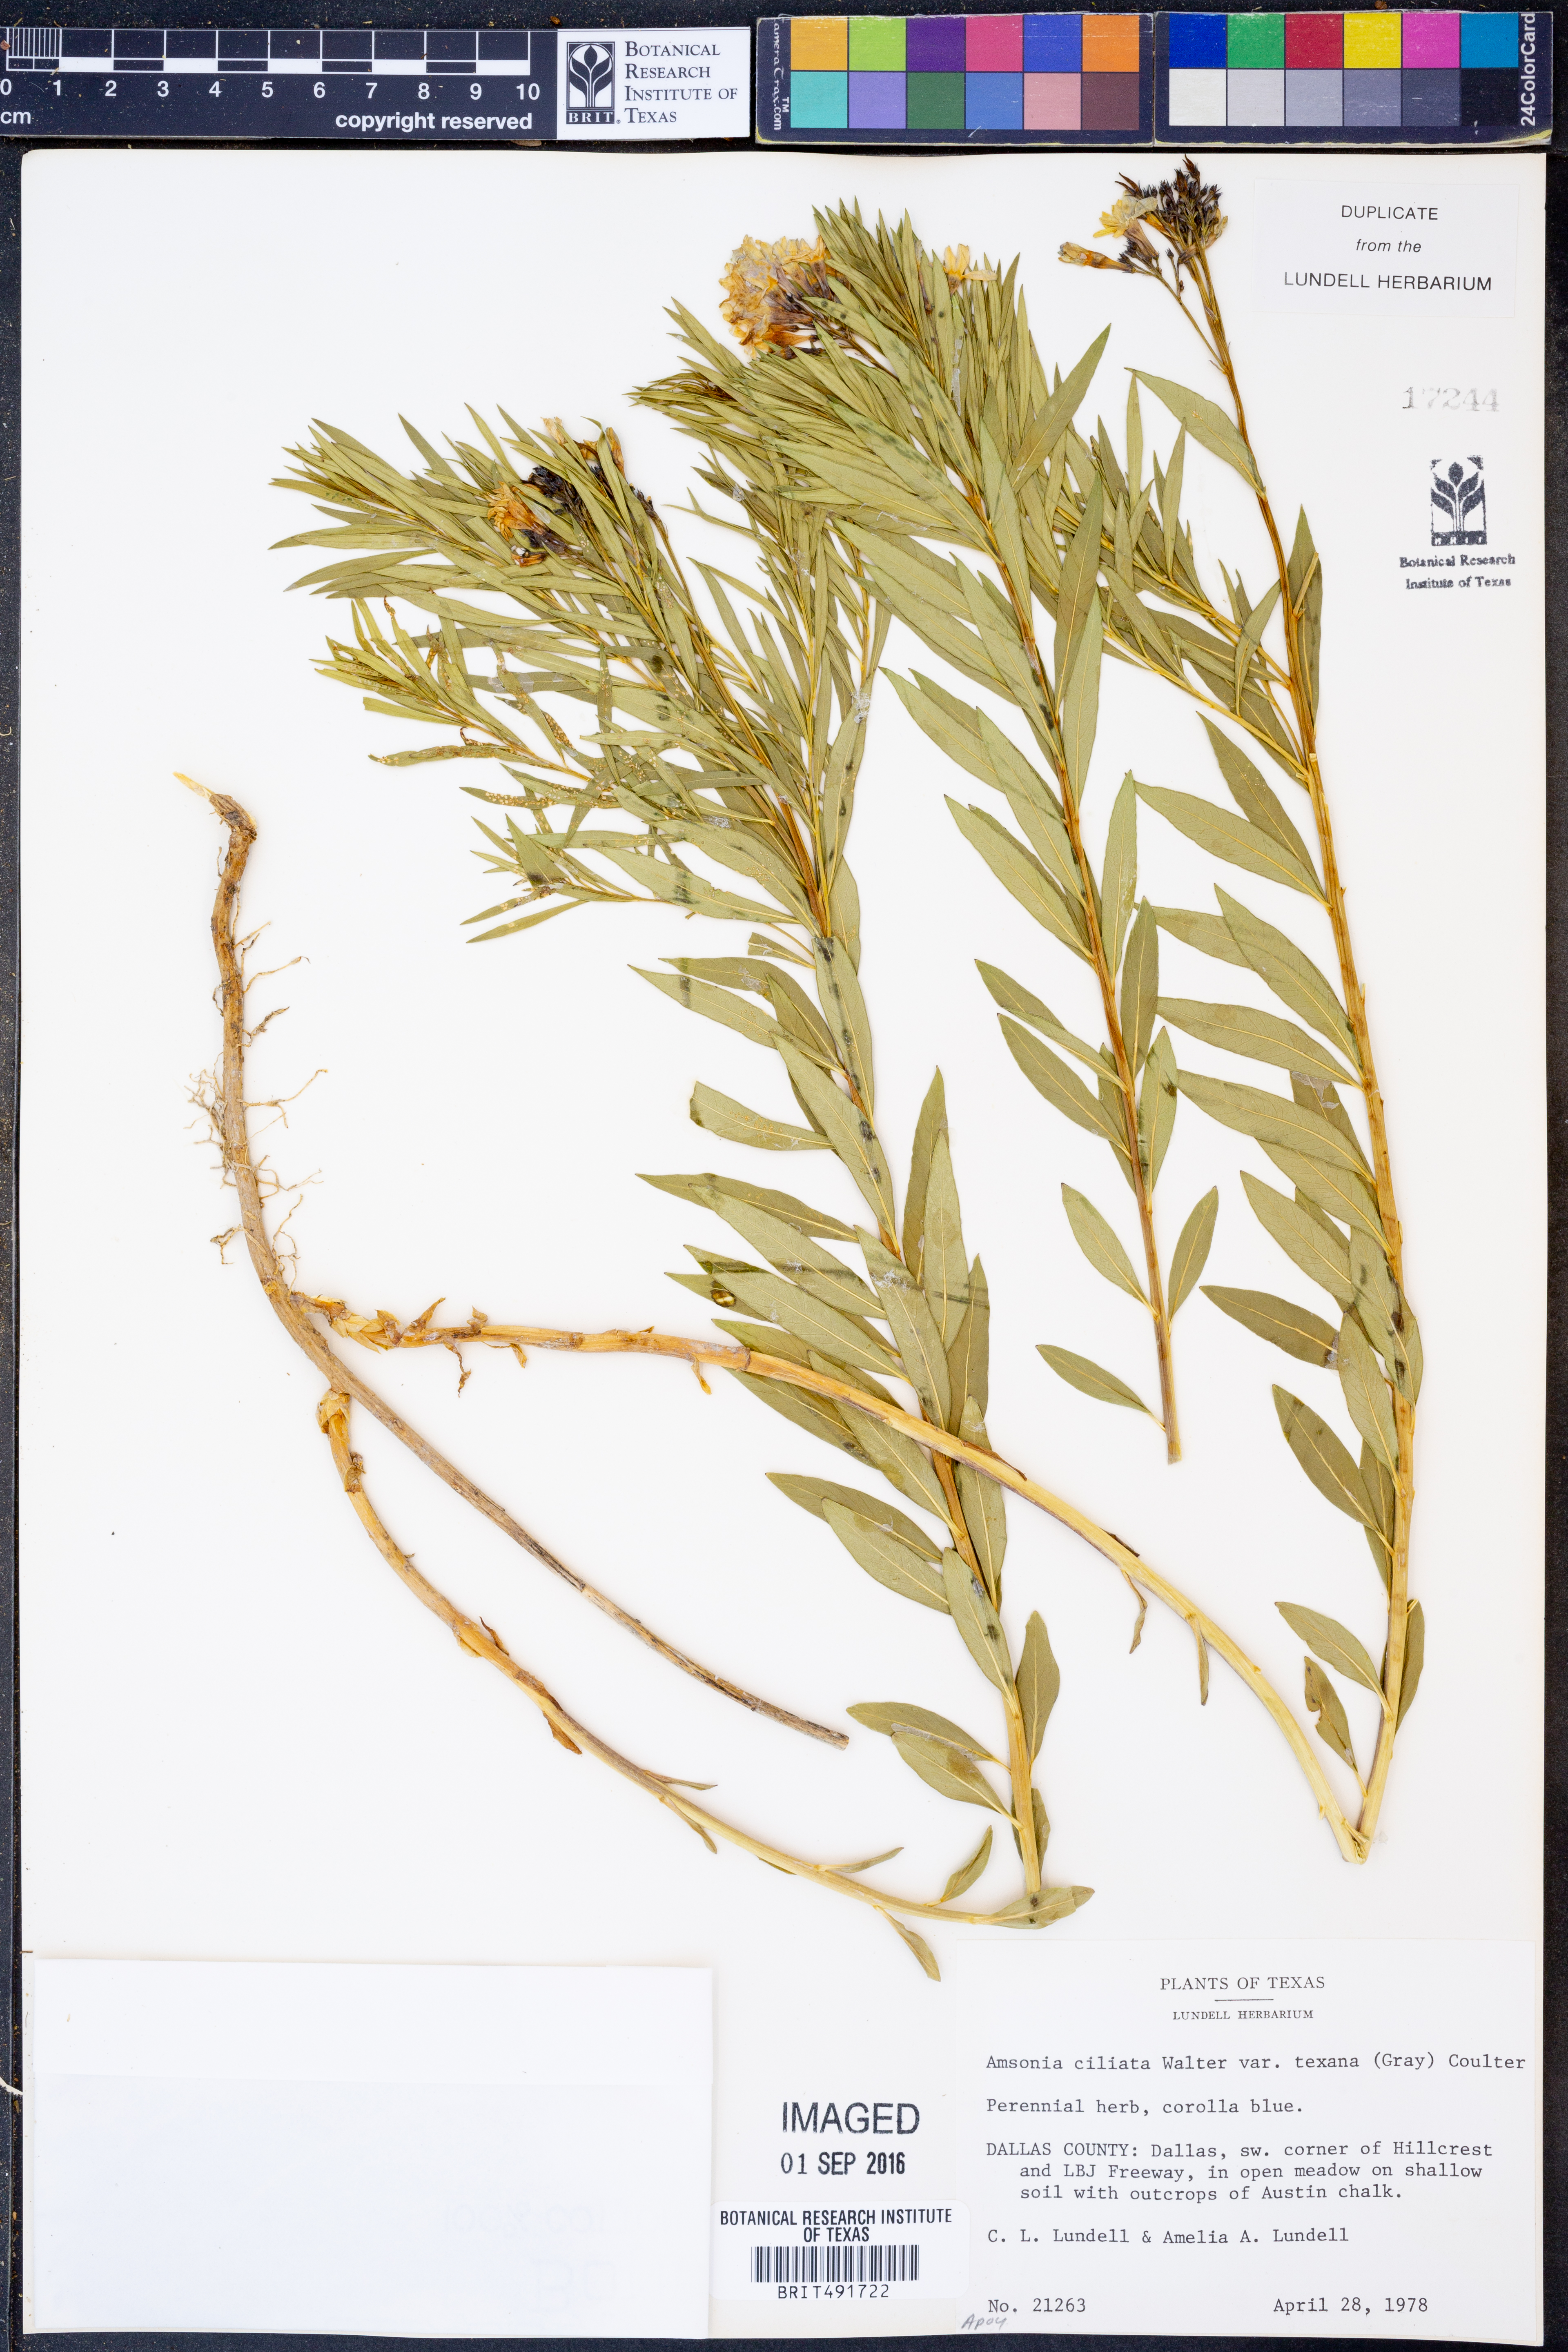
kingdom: Plantae
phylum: Tracheophyta
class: Magnoliopsida
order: Gentianales
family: Apocynaceae
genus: Amsonia
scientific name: Amsonia ciliata
